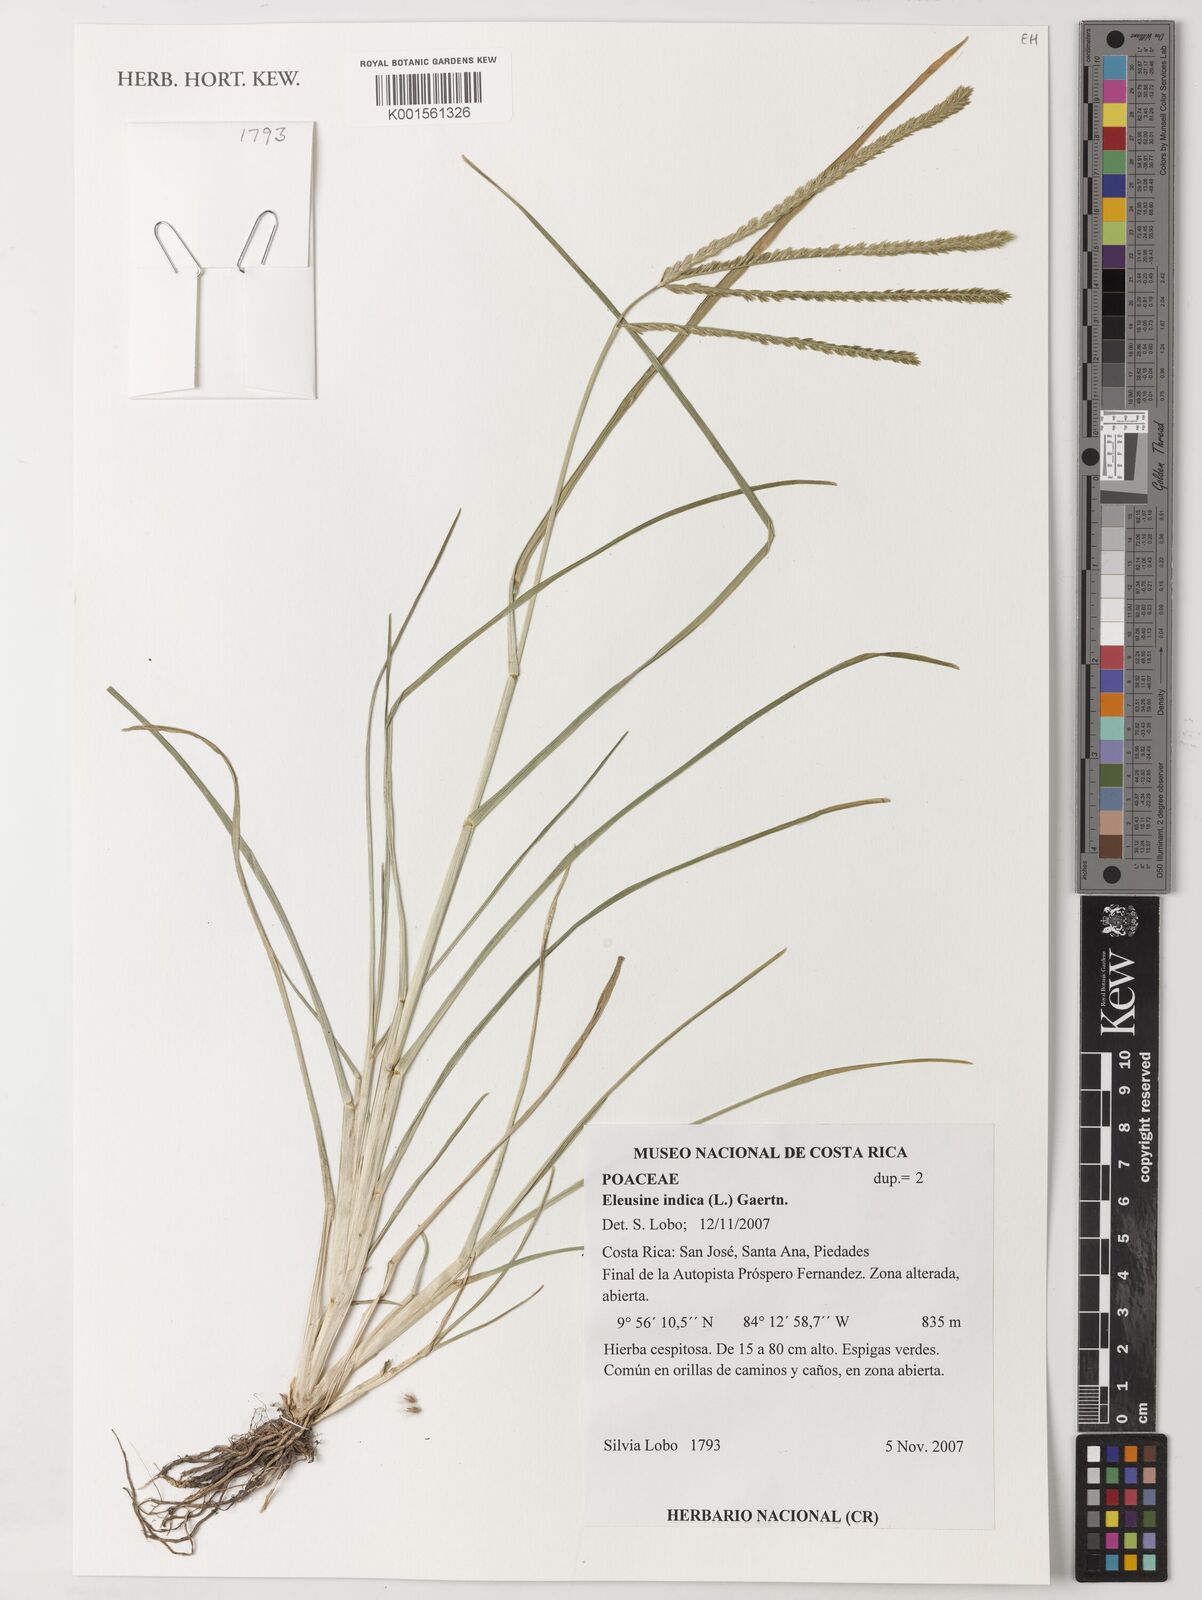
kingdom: Plantae
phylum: Tracheophyta
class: Liliopsida
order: Poales
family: Poaceae
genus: Eleusine
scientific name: Eleusine indica
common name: Yard-grass
